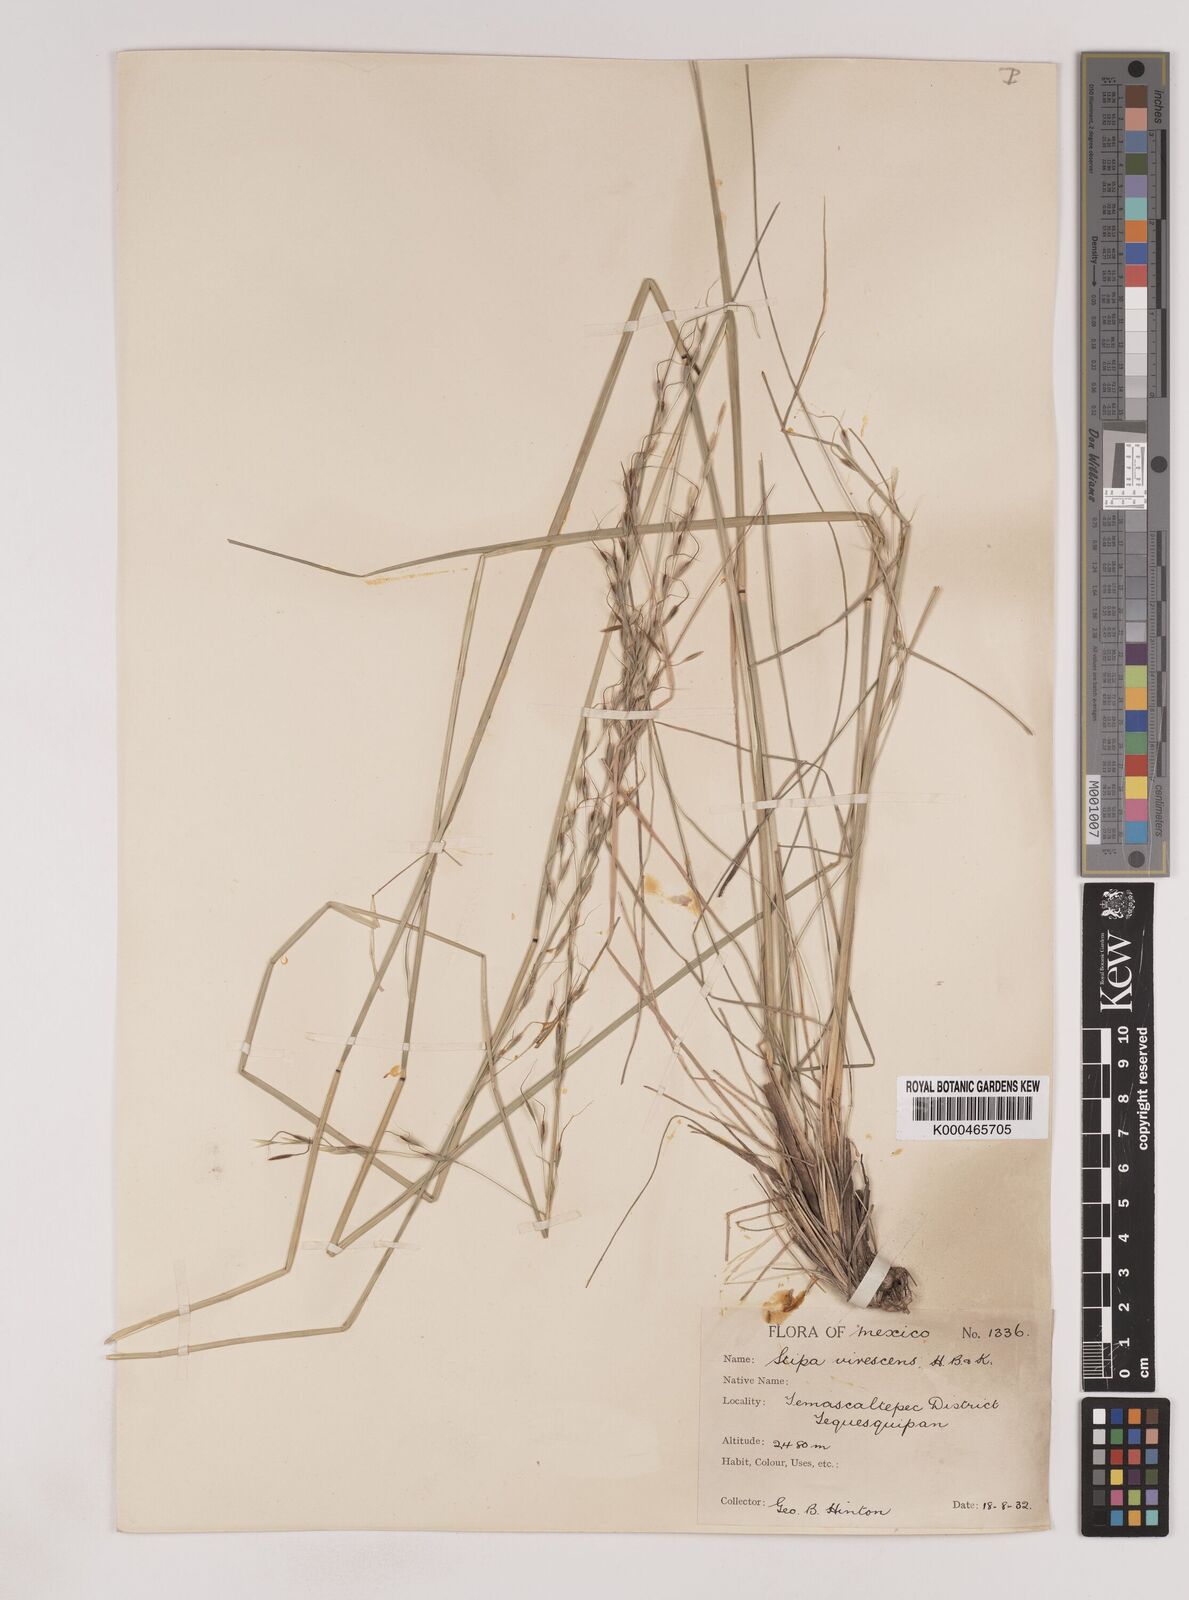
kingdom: Plantae
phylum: Tracheophyta
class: Liliopsida
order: Poales
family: Poaceae
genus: Piptochaetium
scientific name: Piptochaetium virescens
